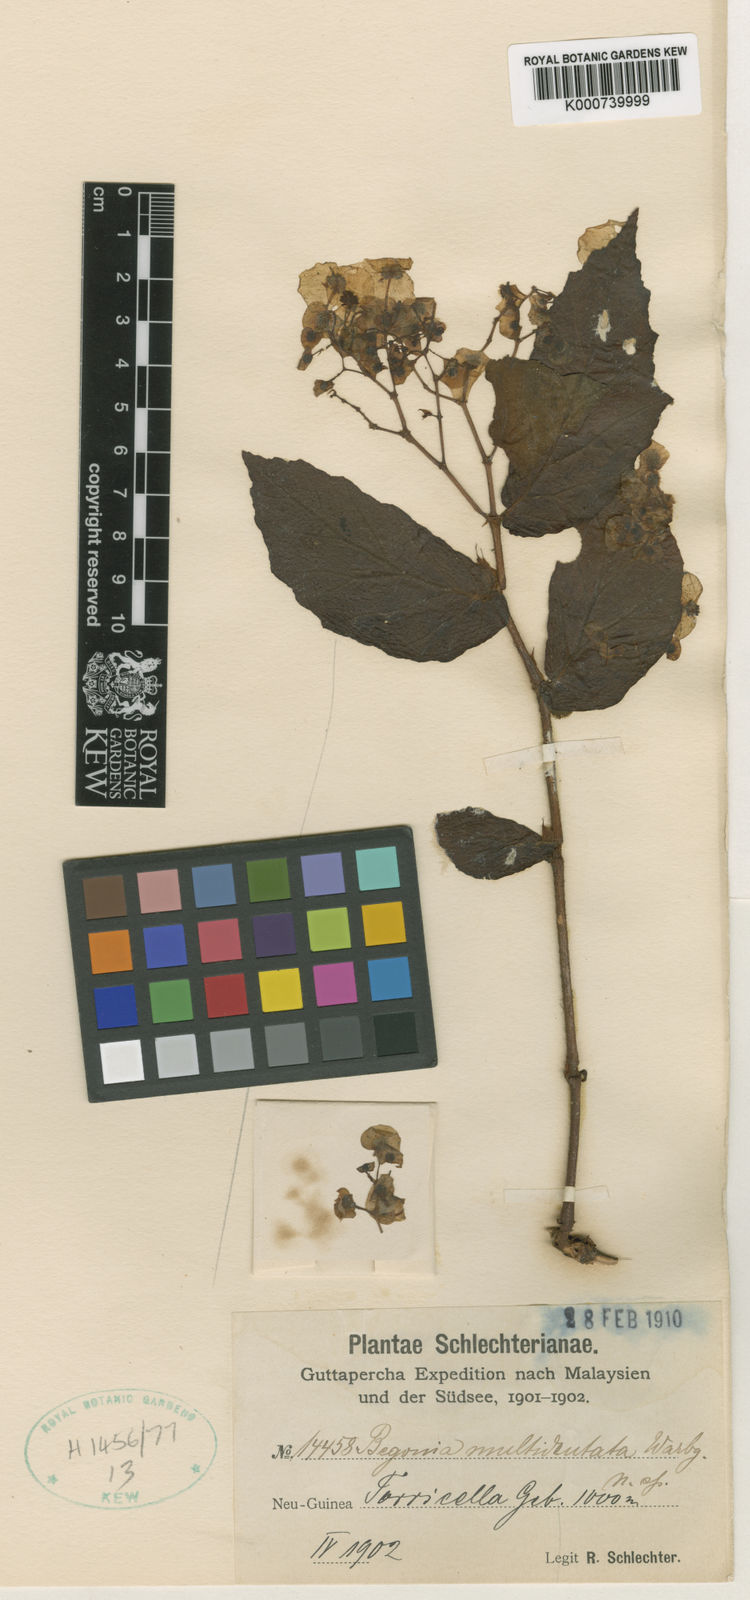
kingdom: Plantae
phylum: Tracheophyta
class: Magnoliopsida
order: Cucurbitales
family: Begoniaceae
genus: Begonia
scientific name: Begonia multidentata
